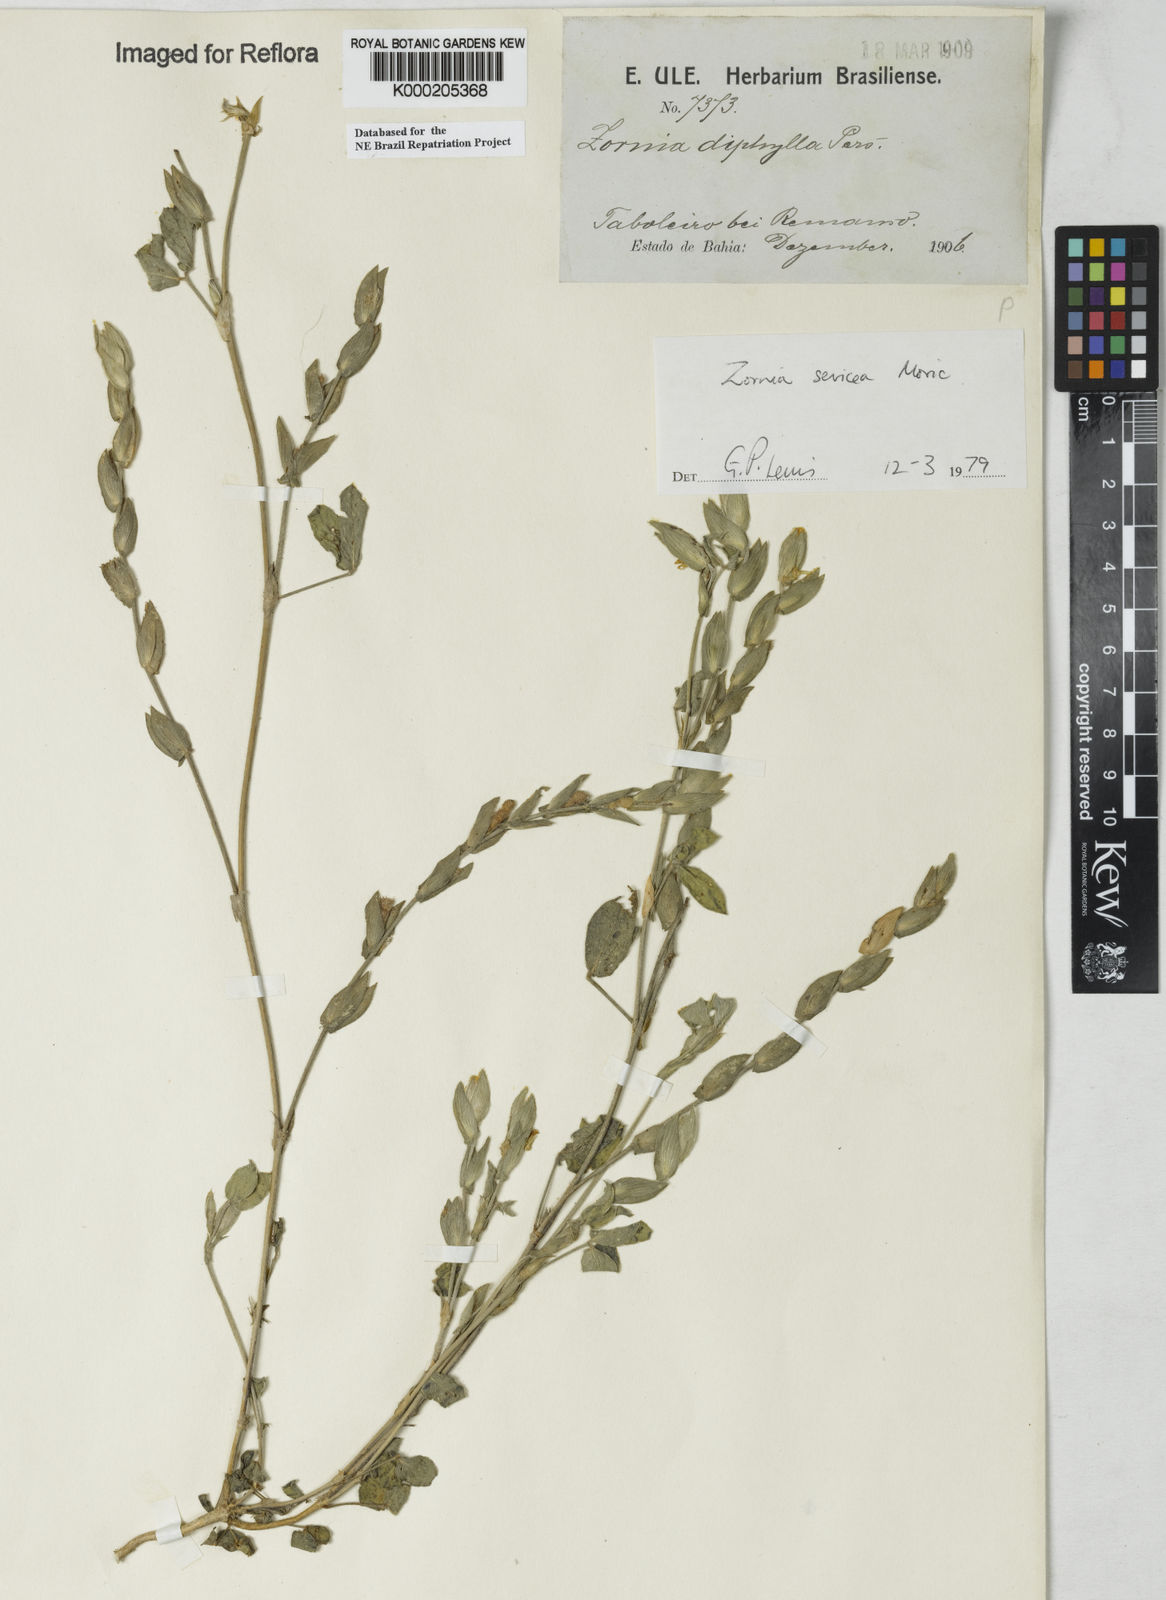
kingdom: Plantae
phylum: Tracheophyta
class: Magnoliopsida
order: Fabales
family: Fabaceae
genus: Zornia
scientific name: Zornia sericea
